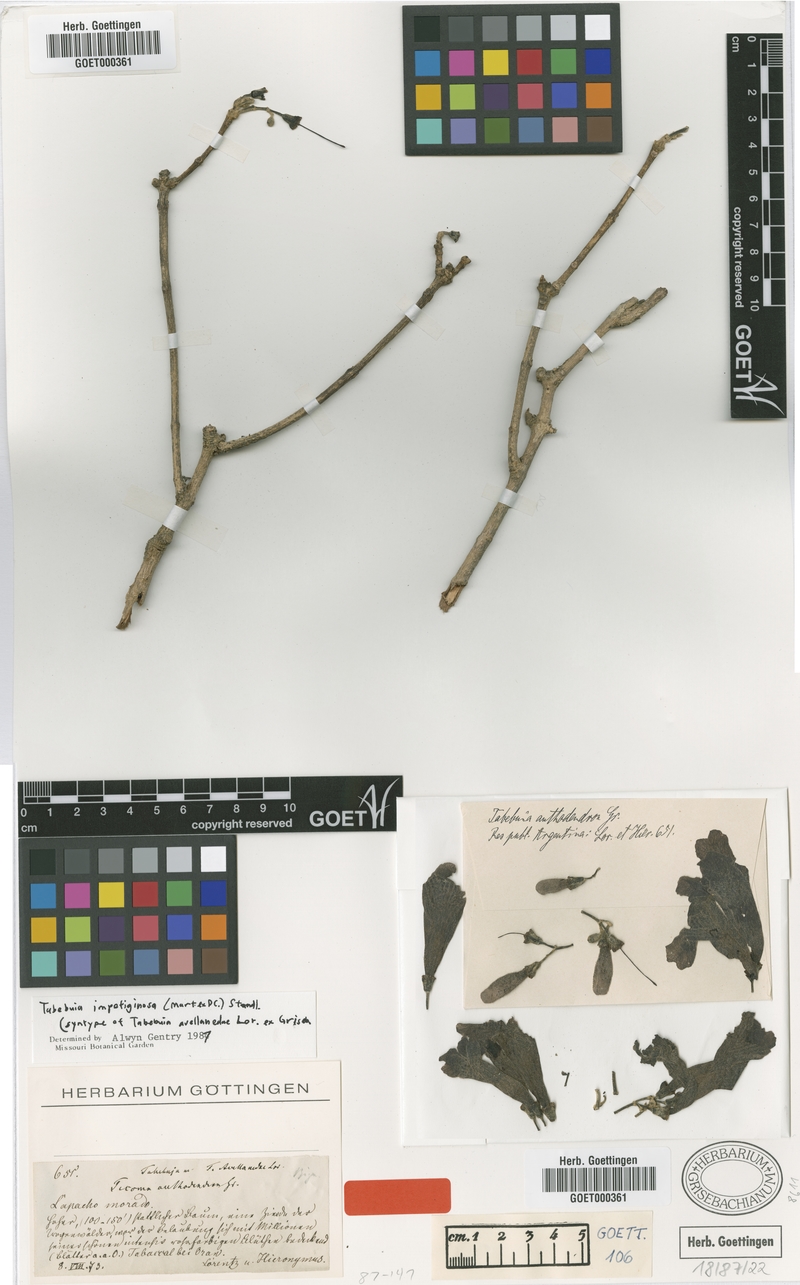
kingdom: Plantae
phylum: Tracheophyta
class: Magnoliopsida
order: Lamiales
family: Bignoniaceae
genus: Handroanthus
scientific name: Handroanthus impetiginosum
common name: Pink trumpet tree
